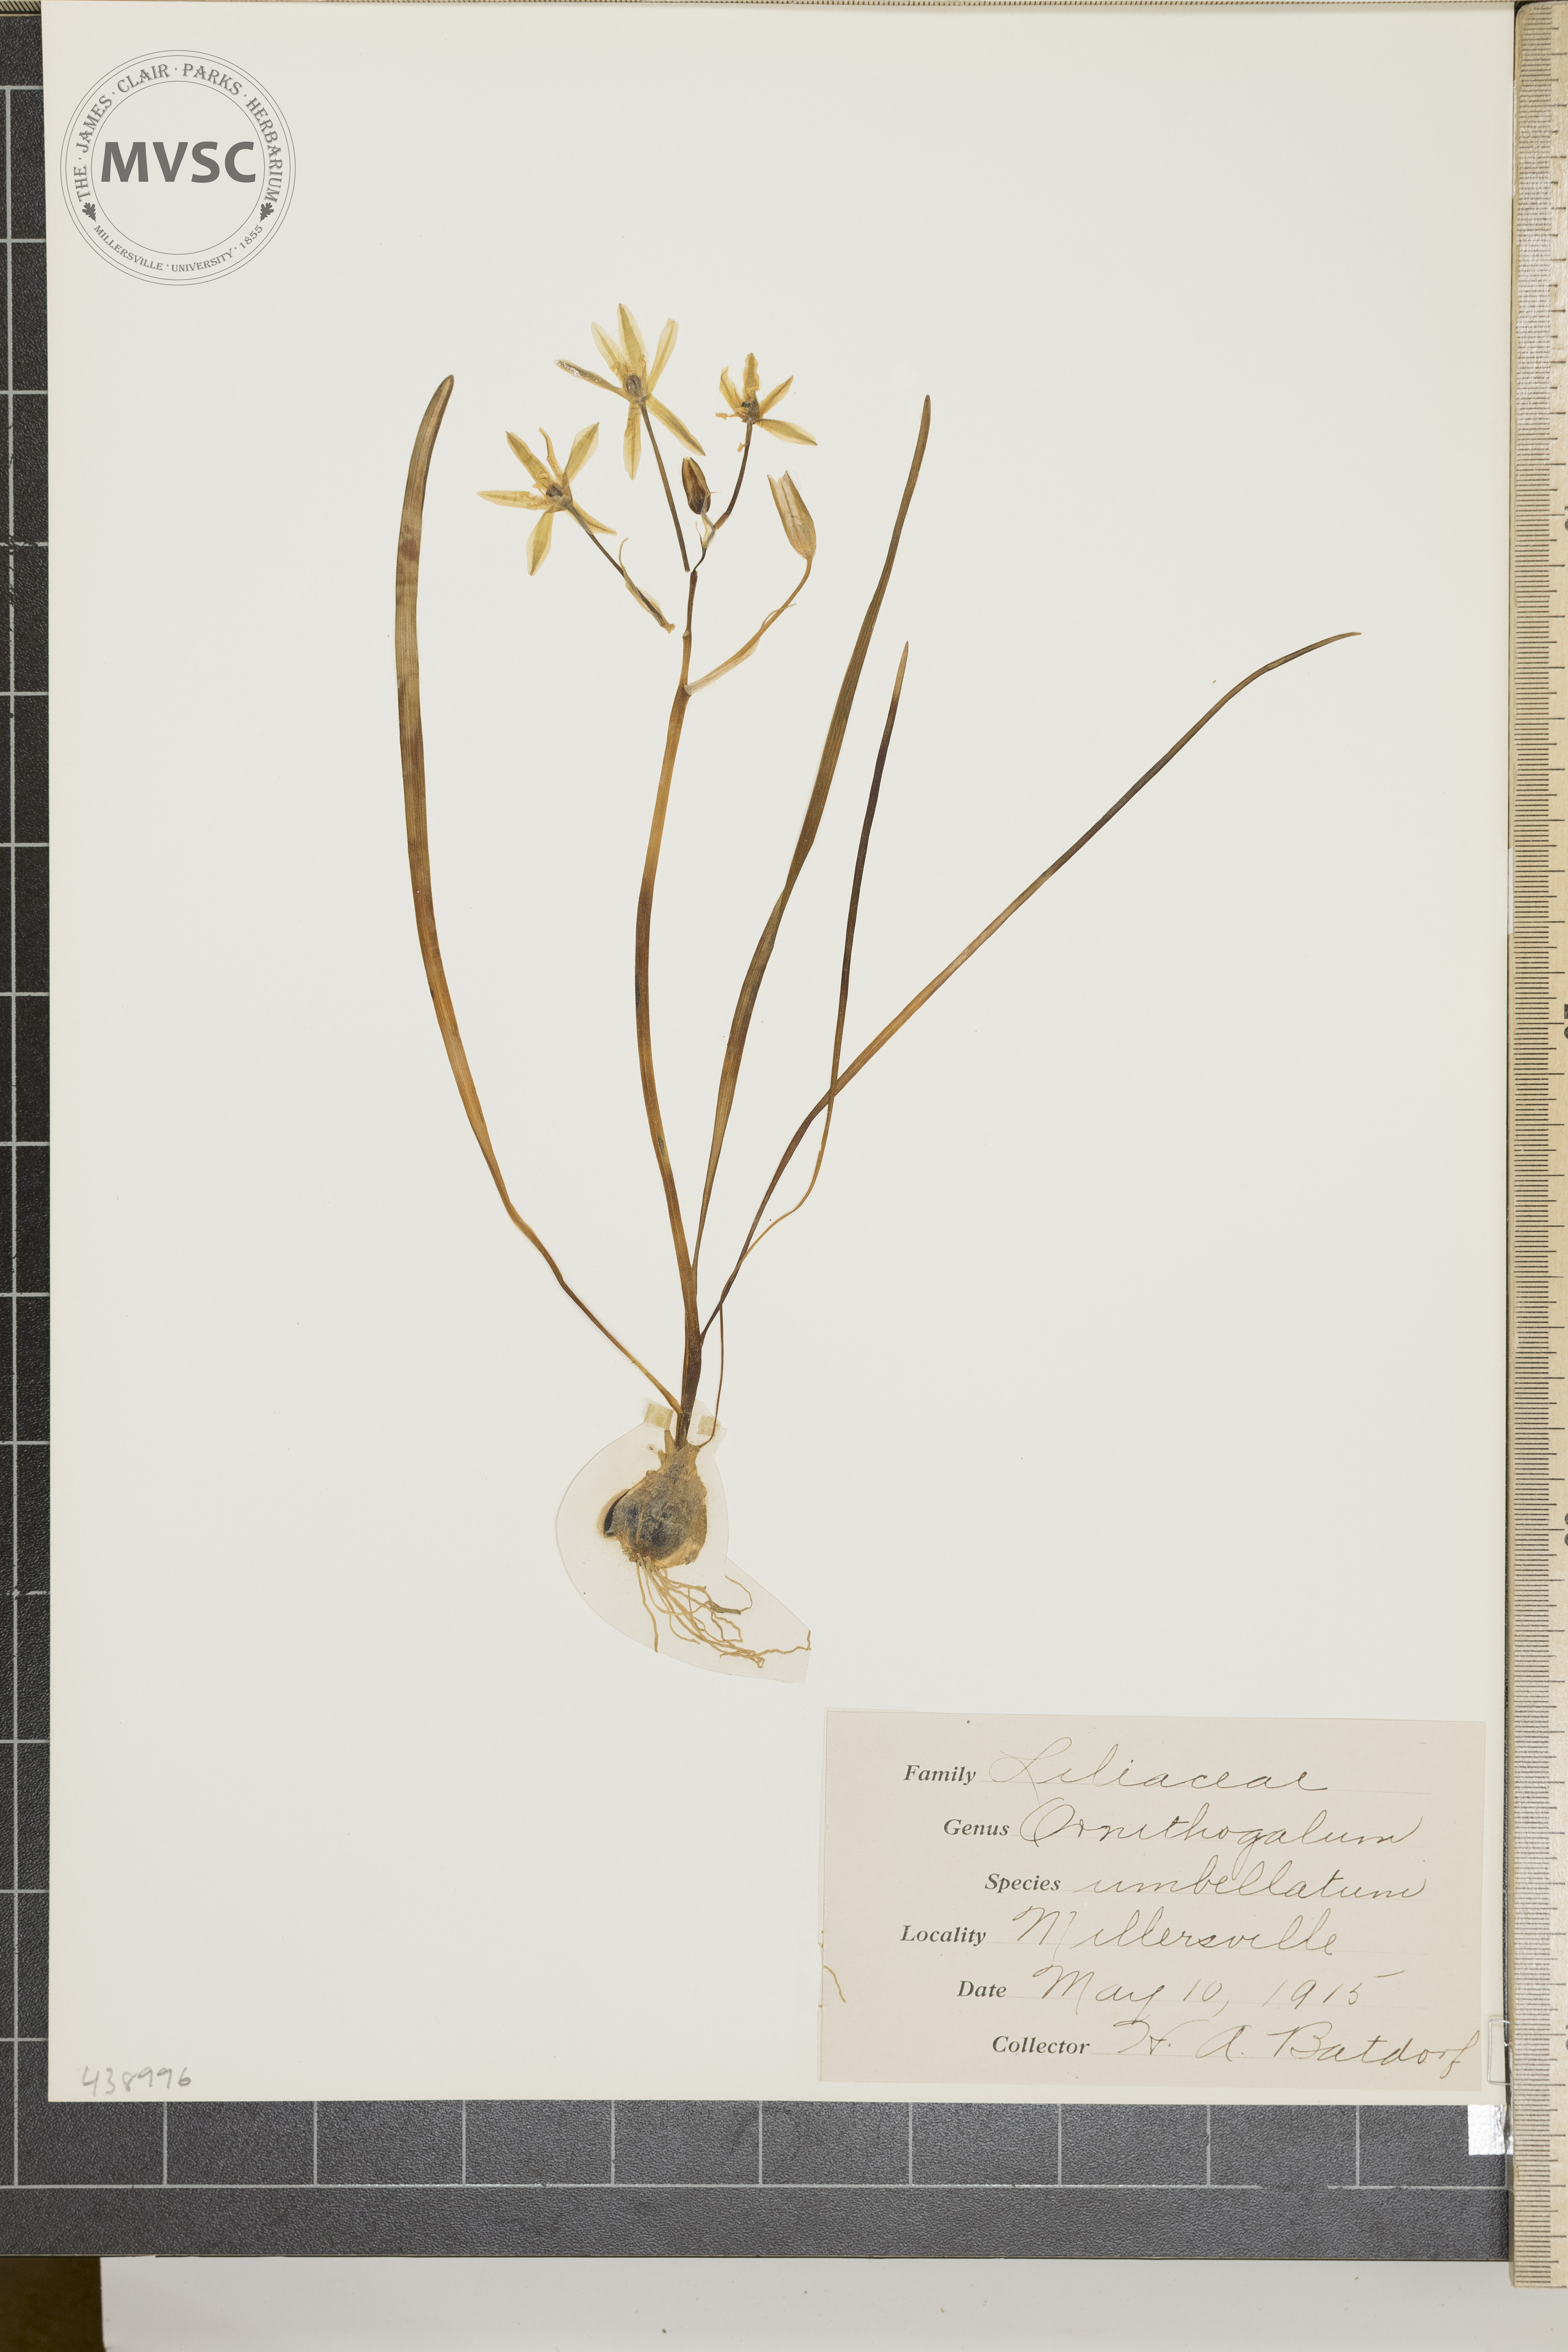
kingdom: Plantae
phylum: Tracheophyta
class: Liliopsida
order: Asparagales
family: Asparagaceae
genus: Ornithogalum
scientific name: Ornithogalum umbellatum
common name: Garden star-of-bethlehem
